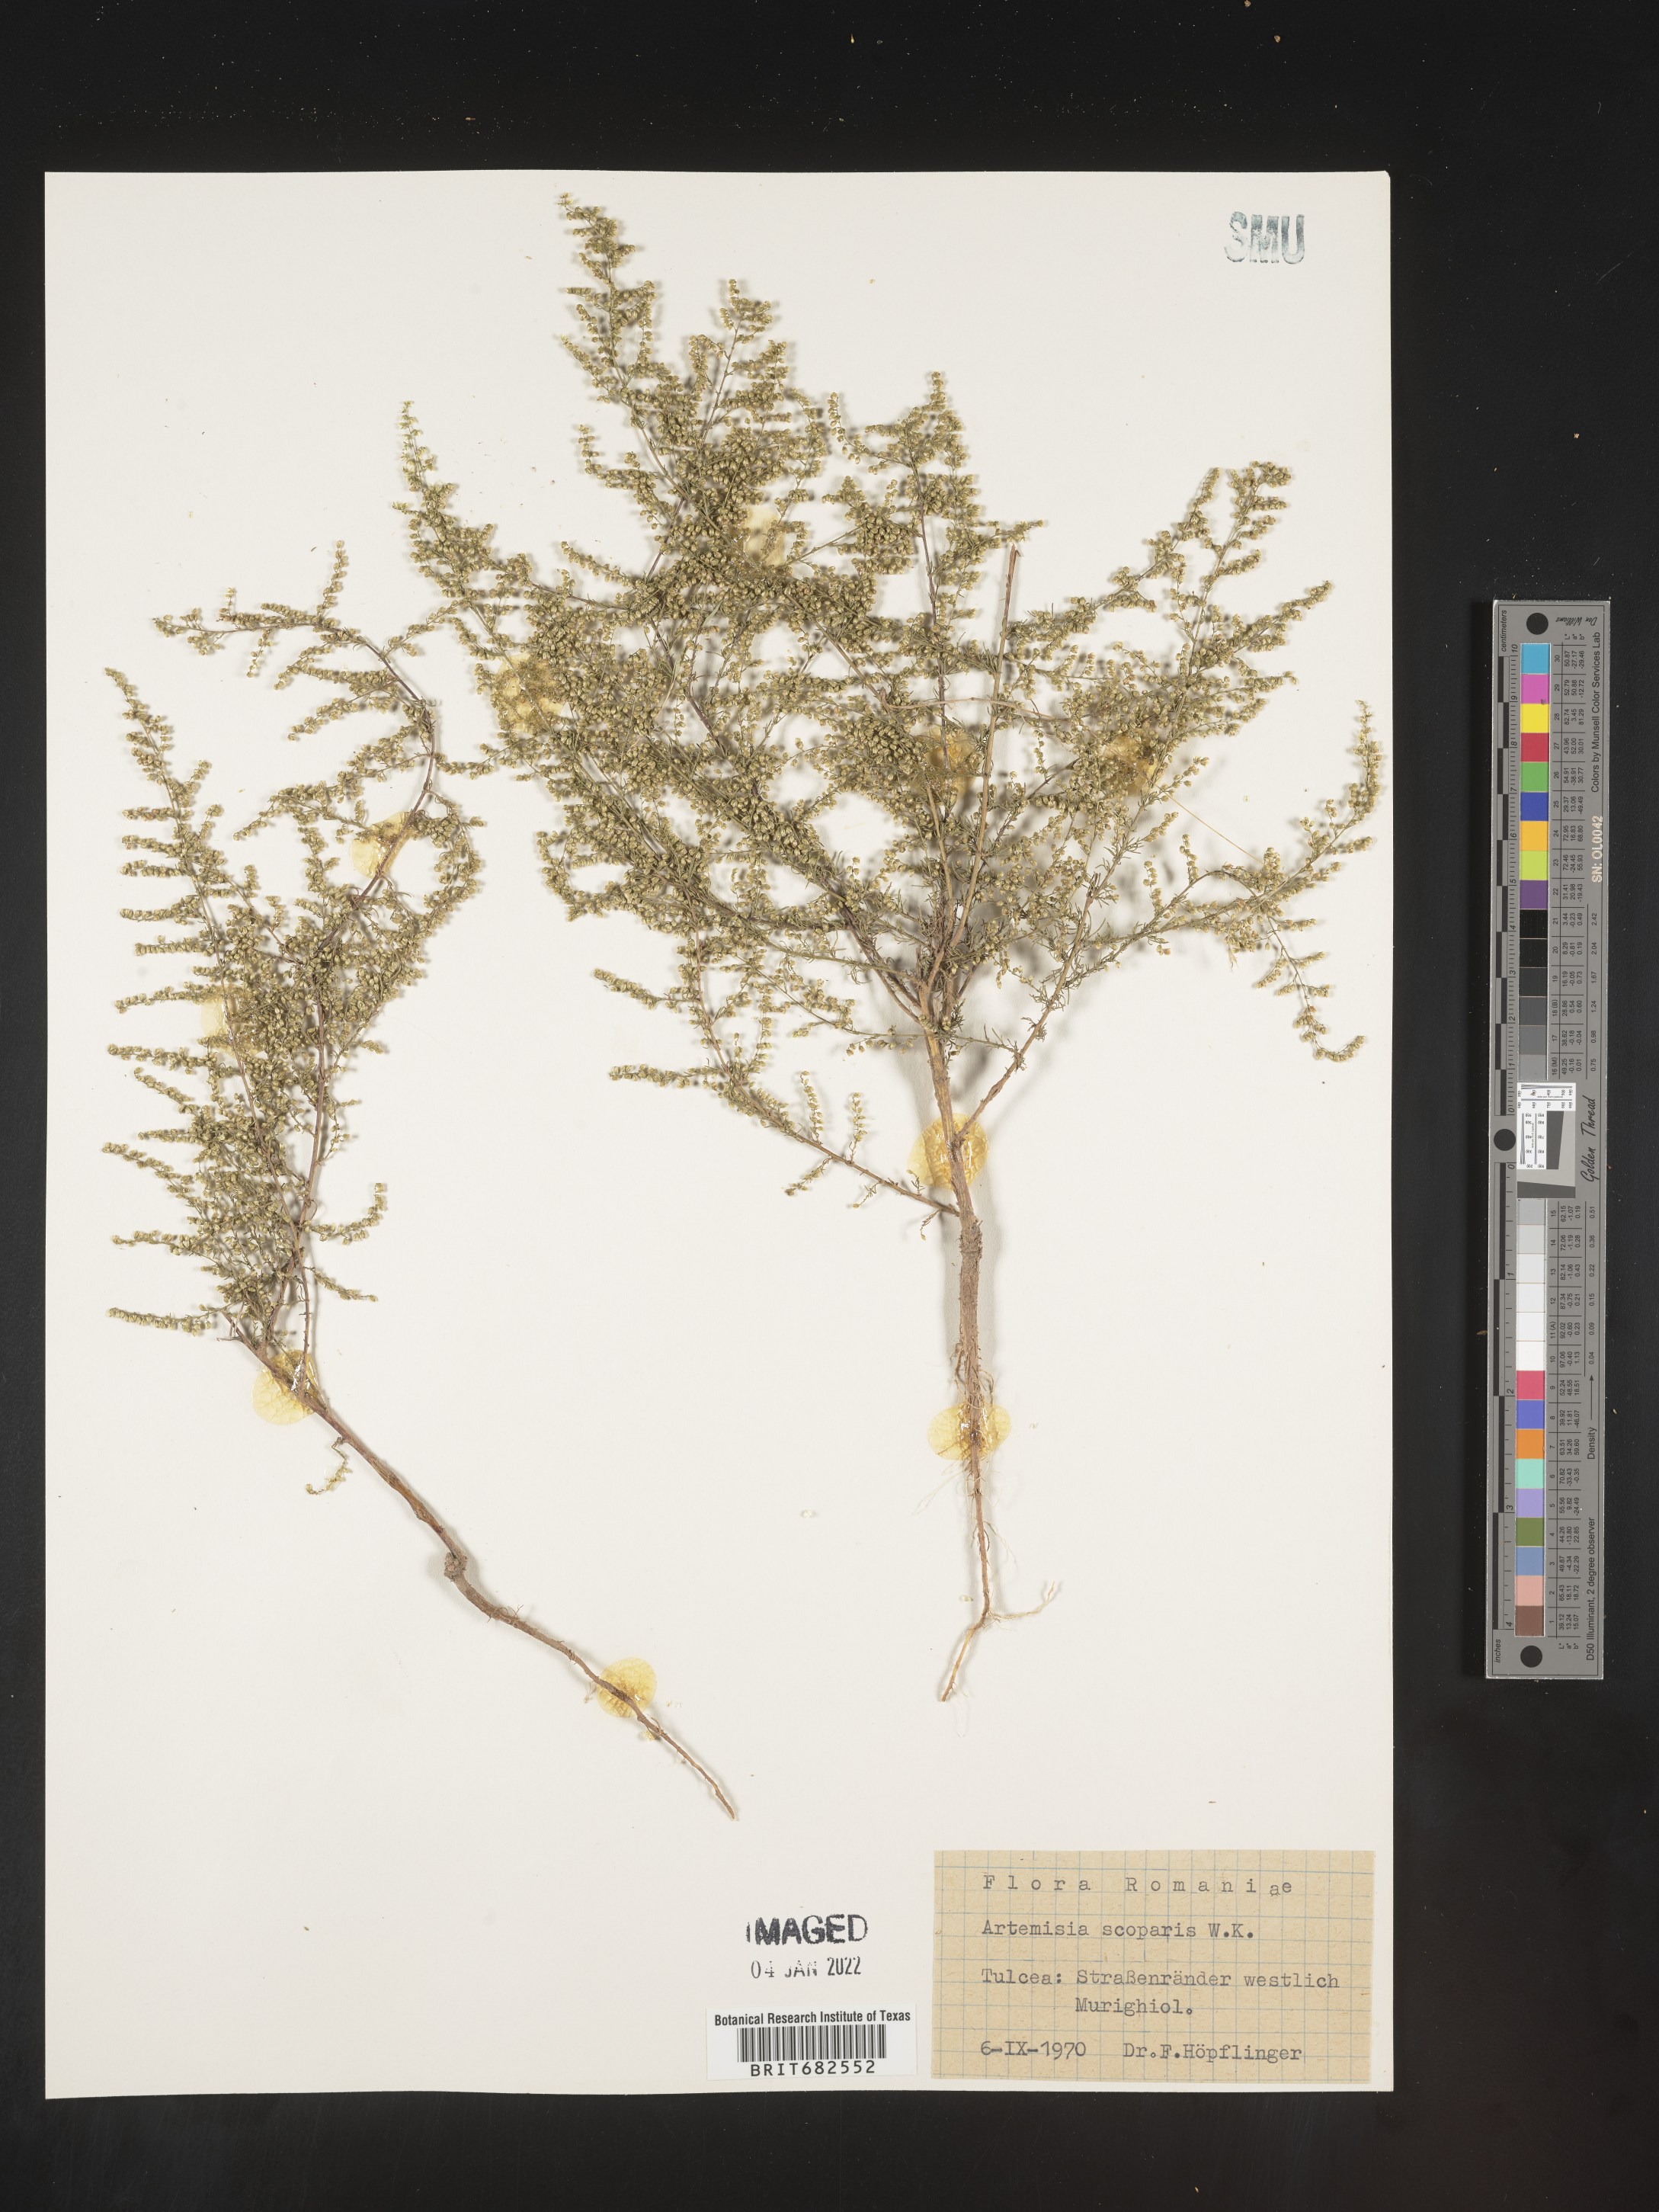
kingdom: Plantae
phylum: Tracheophyta
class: Magnoliopsida
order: Asterales
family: Asteraceae
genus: Artemisia
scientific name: Artemisia
